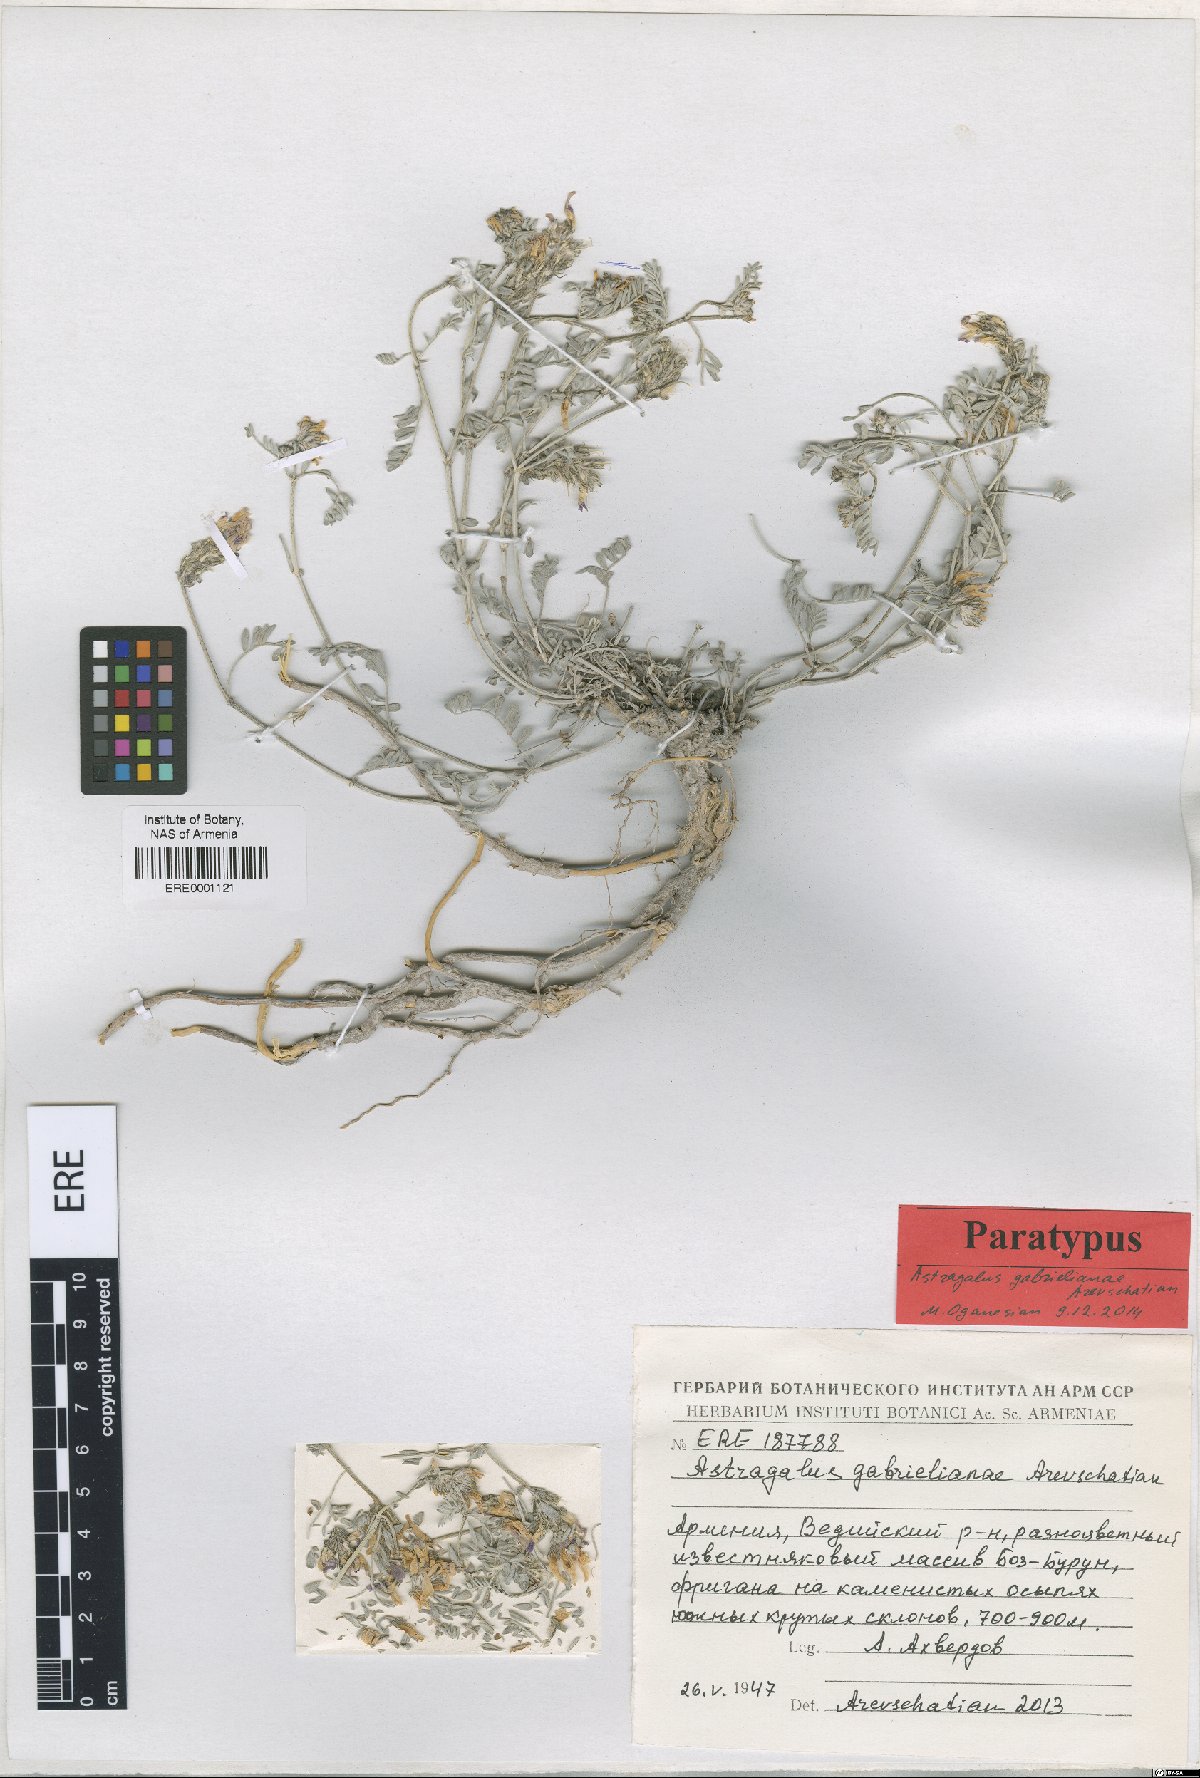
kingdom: Plantae
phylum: Tracheophyta
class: Magnoliopsida
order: Fabales
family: Fabaceae
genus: Astragalus
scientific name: Astragalus gabrelianae
